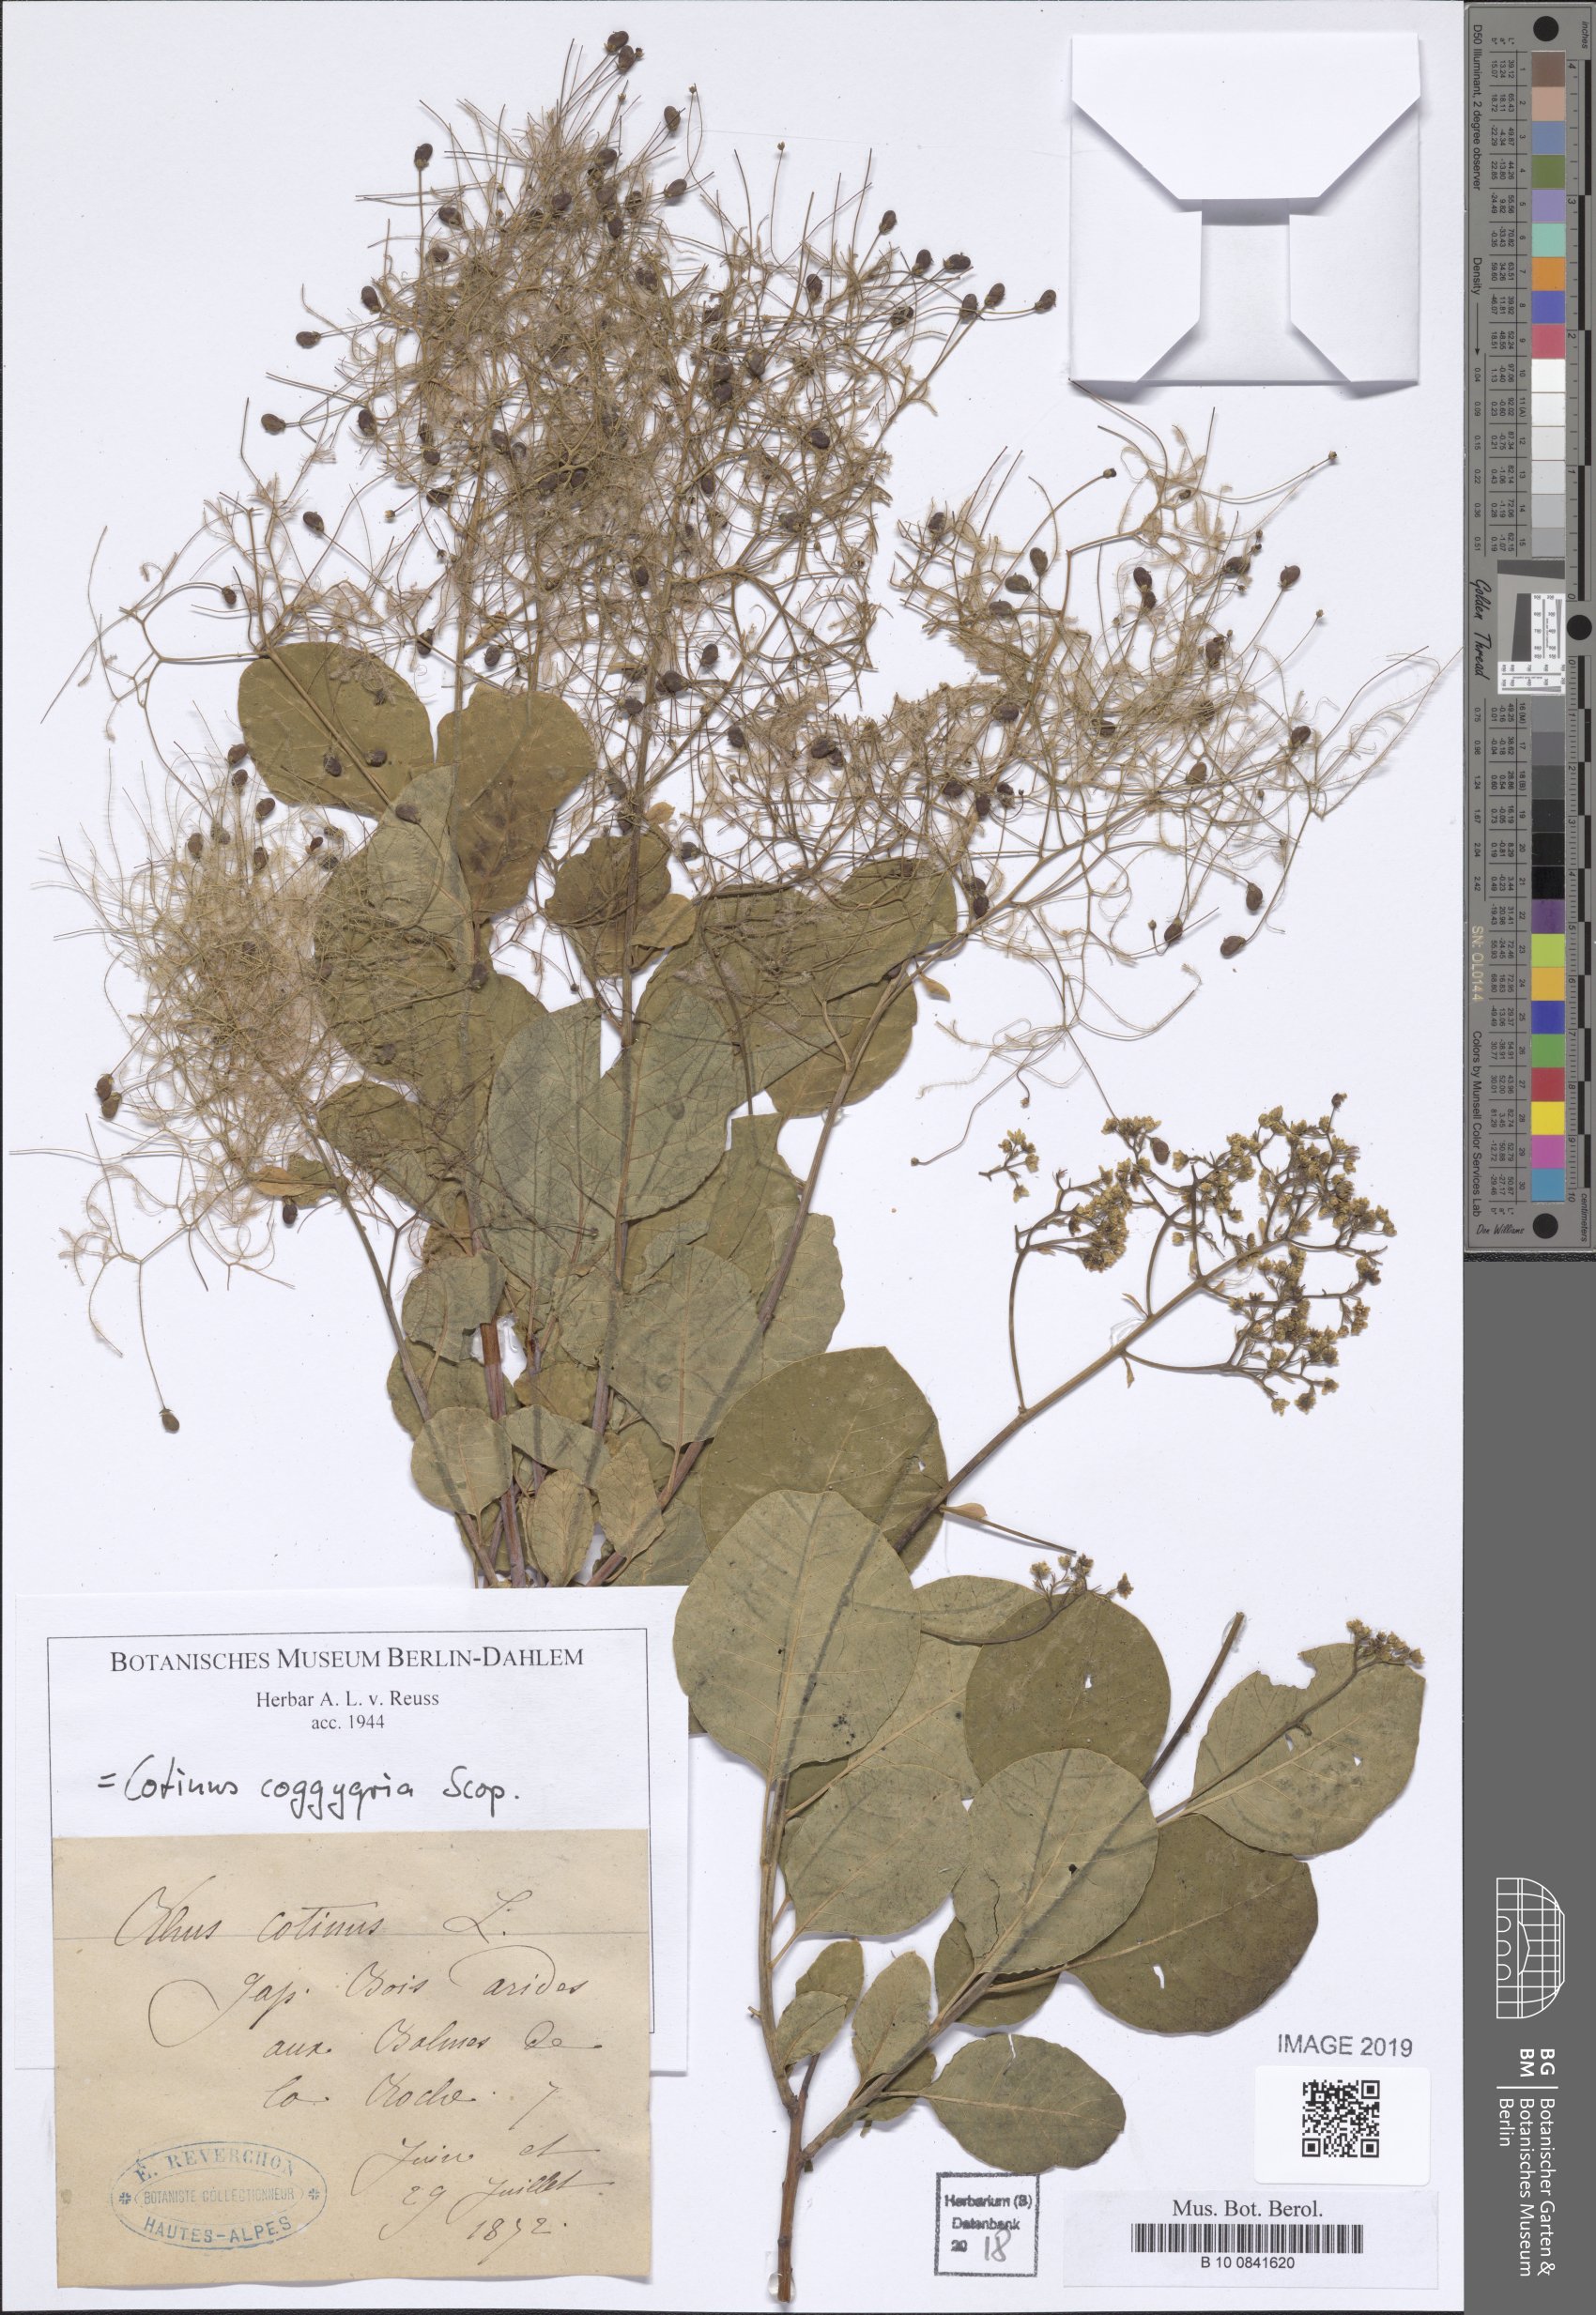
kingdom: Plantae
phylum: Tracheophyta
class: Magnoliopsida
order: Sapindales
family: Anacardiaceae
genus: Cotinus
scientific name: Cotinus coggygria
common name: Smoke-tree
